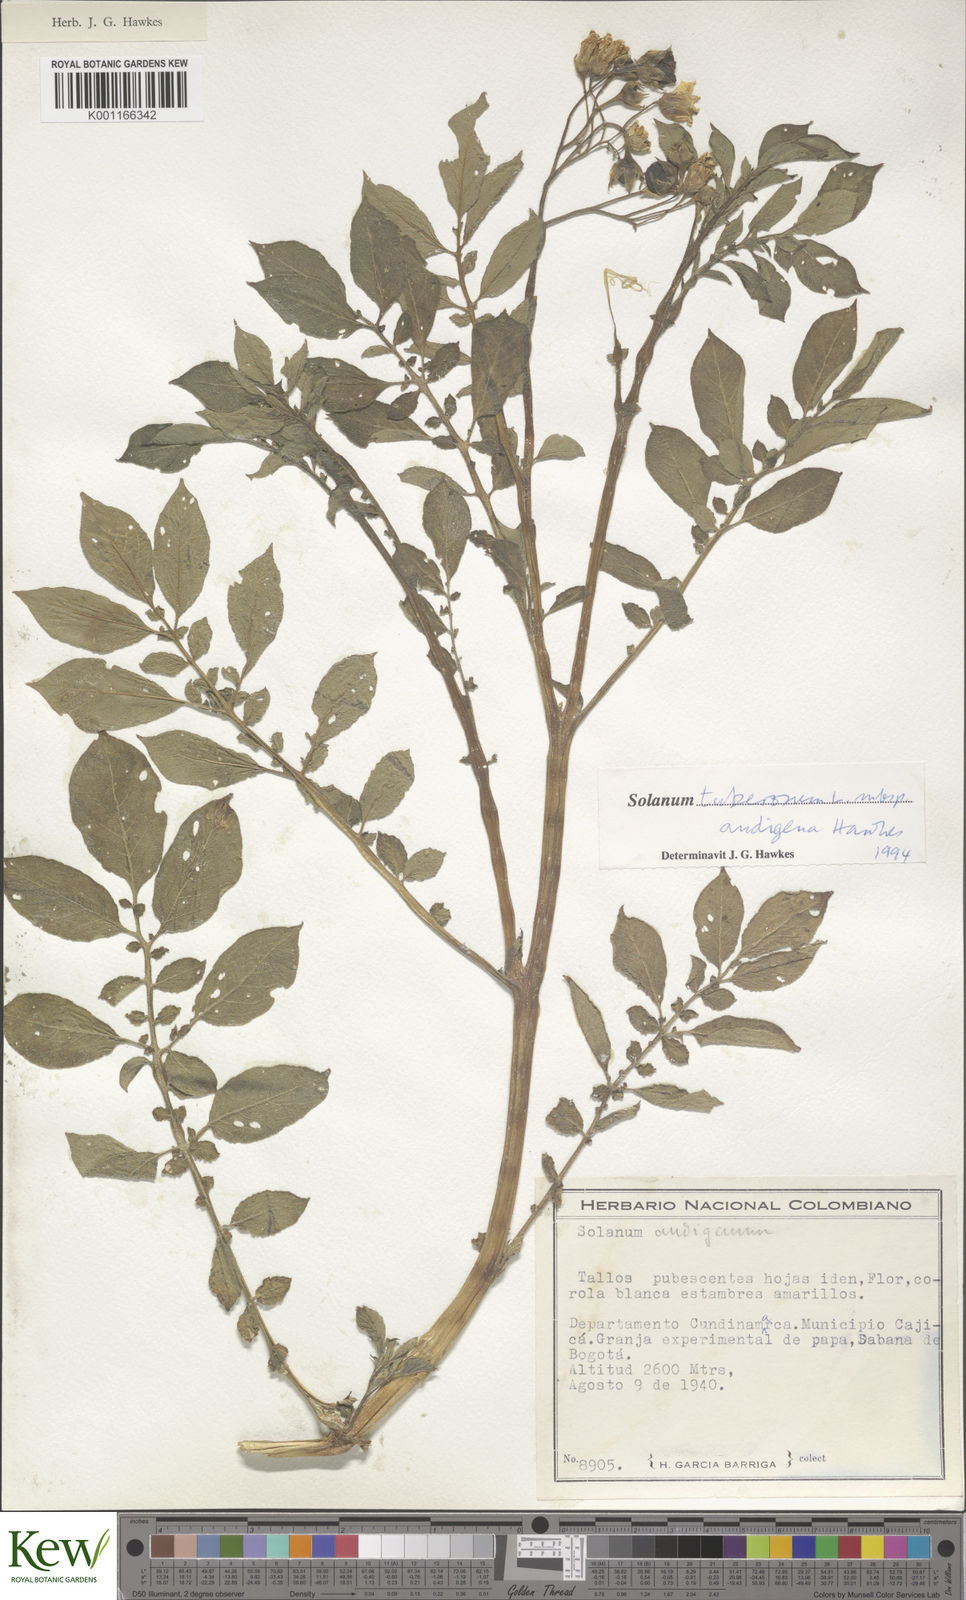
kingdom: Plantae
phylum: Tracheophyta
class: Magnoliopsida
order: Solanales
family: Solanaceae
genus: Solanum
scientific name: Solanum tuberosum
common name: Potato
